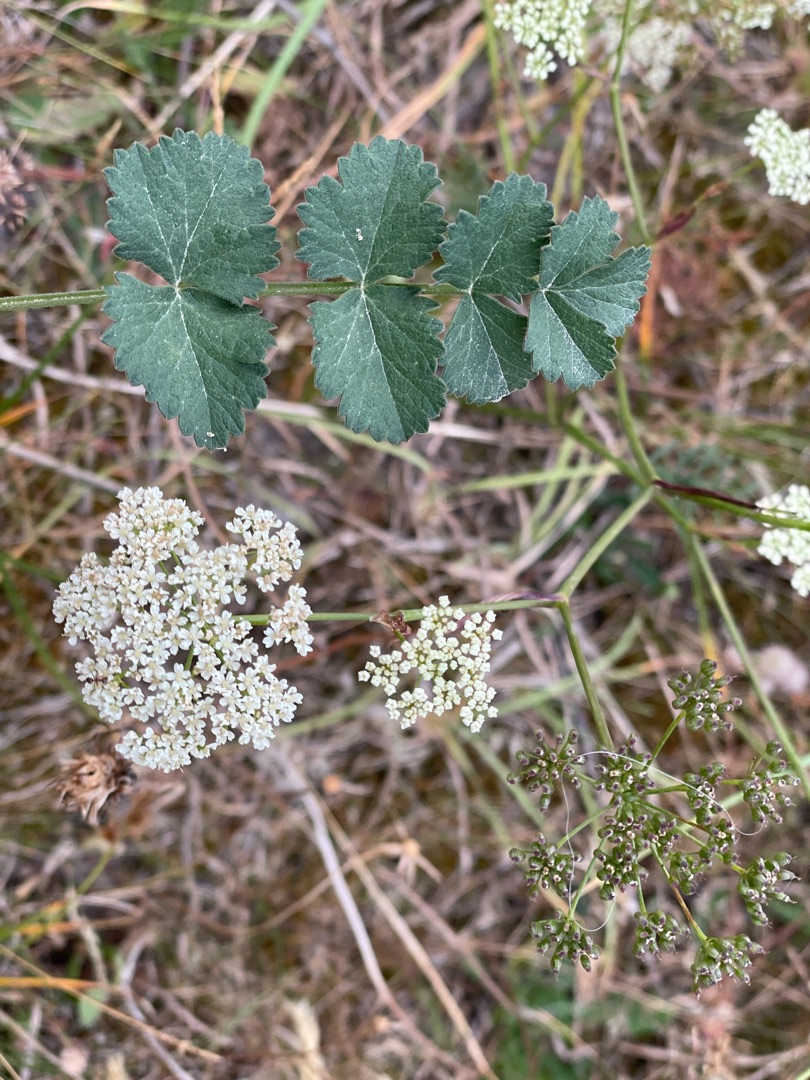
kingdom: Plantae
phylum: Tracheophyta
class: Magnoliopsida
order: Apiales
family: Apiaceae
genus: Pimpinella
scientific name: Pimpinella saxifraga
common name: Almindelig pimpinelle
